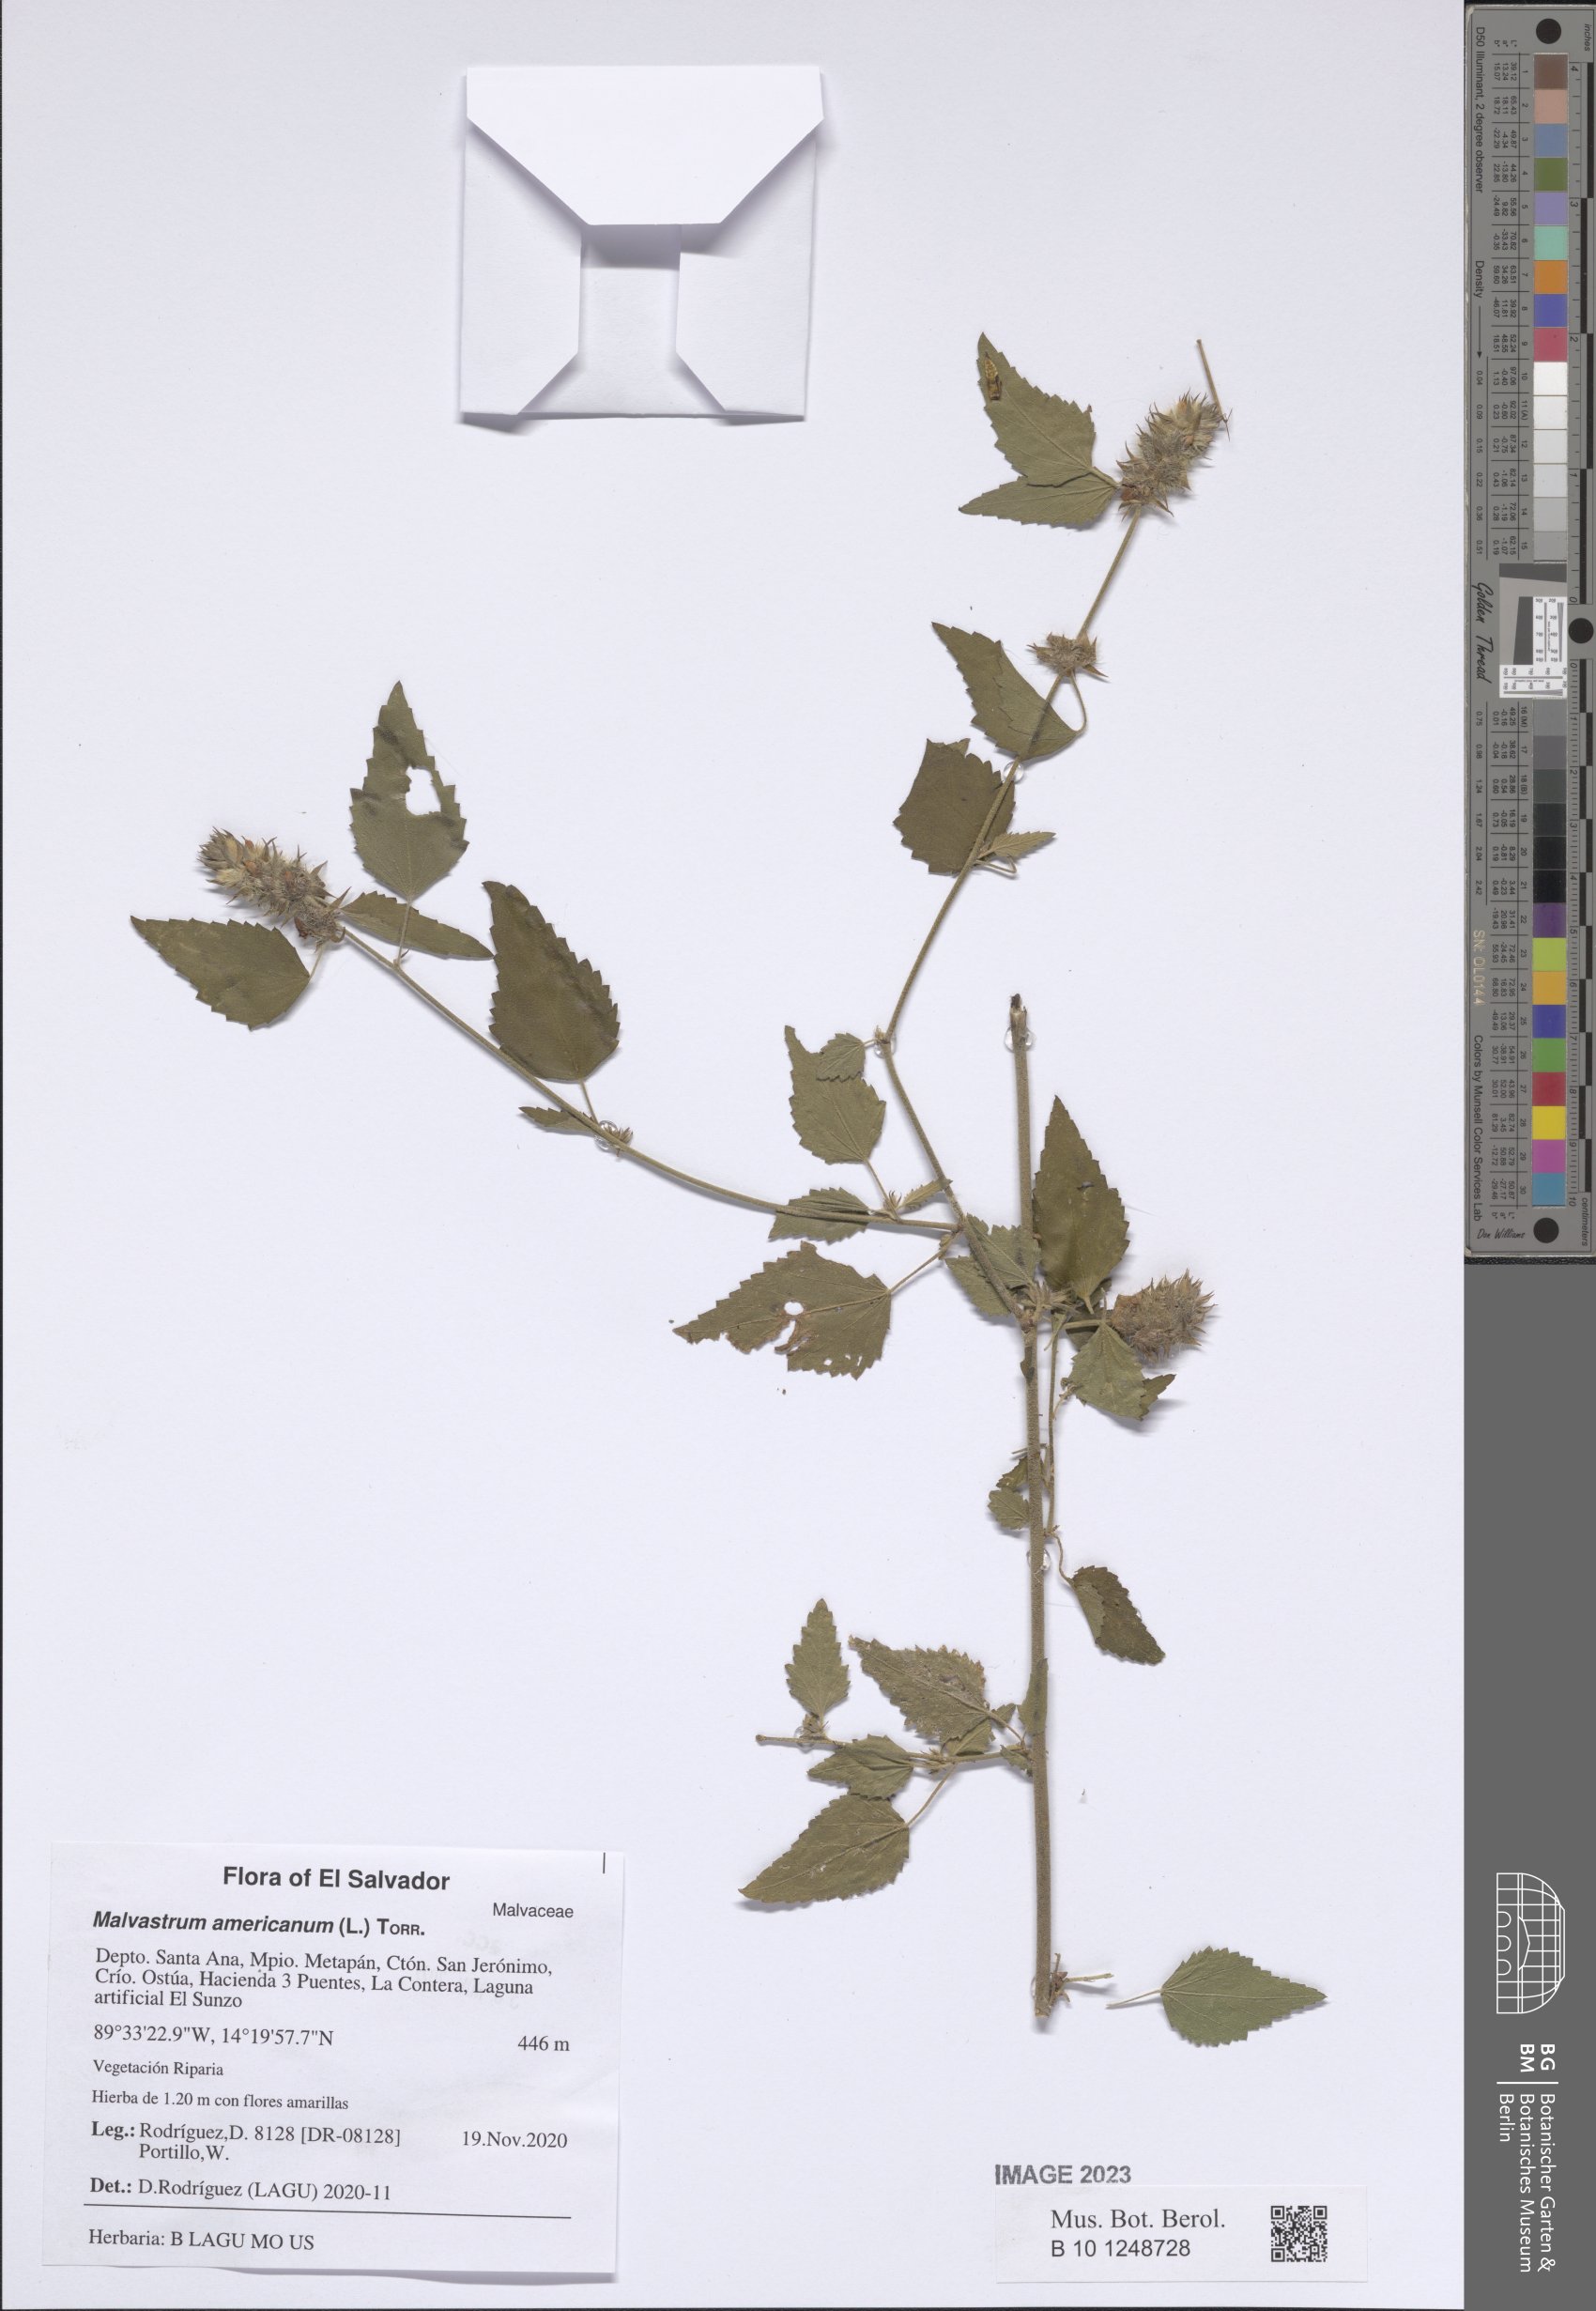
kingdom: Plantae
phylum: Tracheophyta
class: Magnoliopsida
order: Malvales
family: Malvaceae
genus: Malvastrum
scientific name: Malvastrum americanum
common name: Spiked malvastrum
